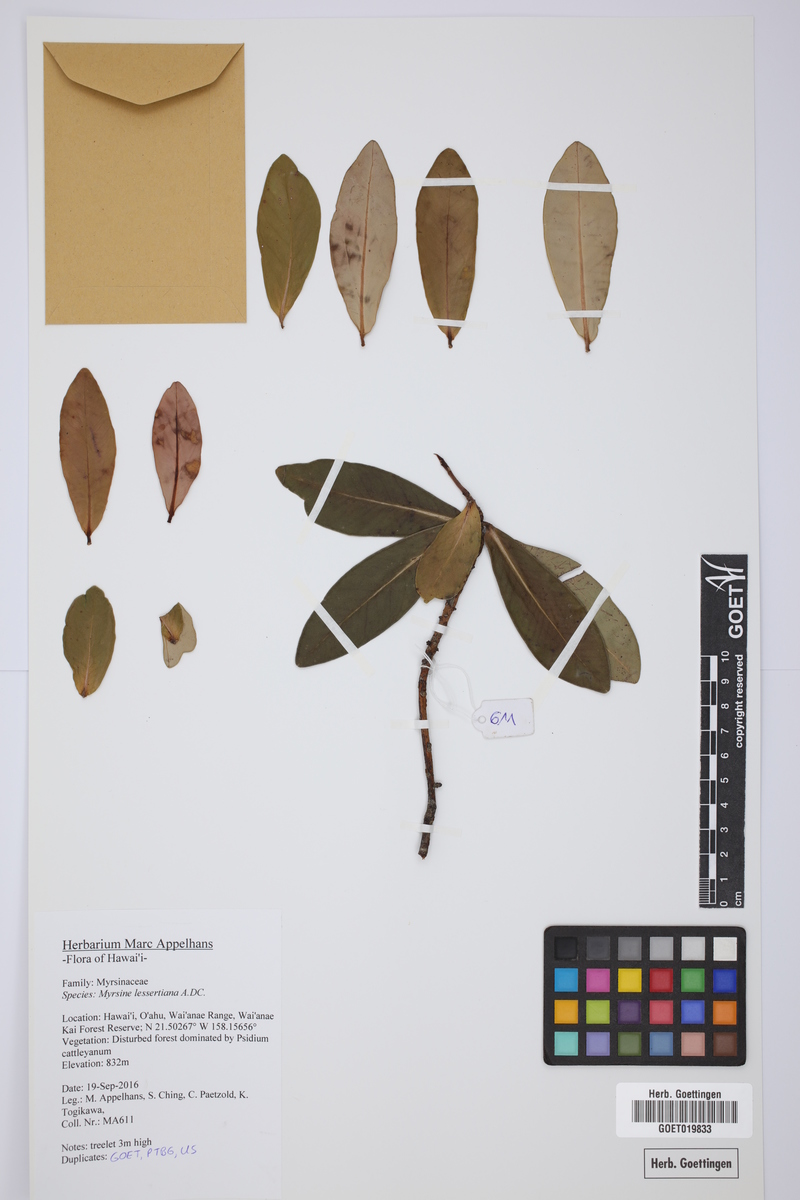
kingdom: Plantae
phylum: Tracheophyta
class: Magnoliopsida
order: Ericales
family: Primulaceae
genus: Myrsine
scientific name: Myrsine lessertiana
